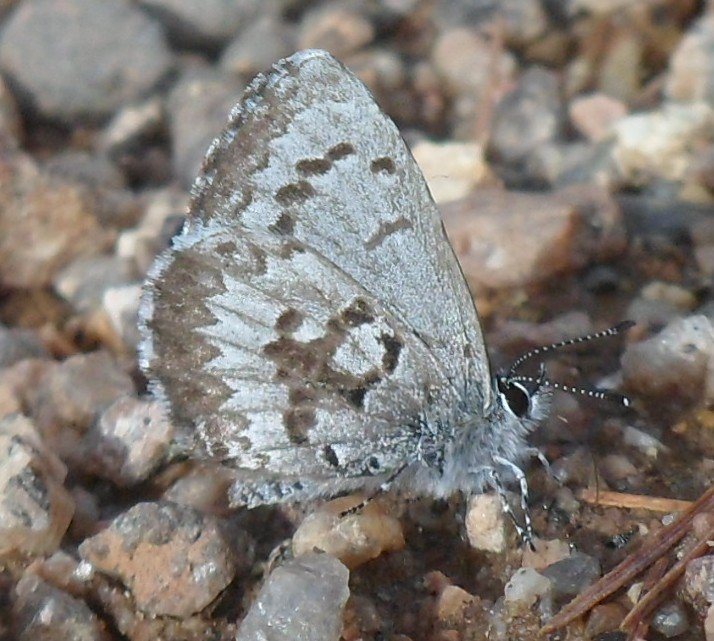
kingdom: Animalia
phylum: Arthropoda
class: Insecta
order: Lepidoptera
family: Lycaenidae
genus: Celastrina
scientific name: Celastrina lucia
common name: Northern Spring Azure
